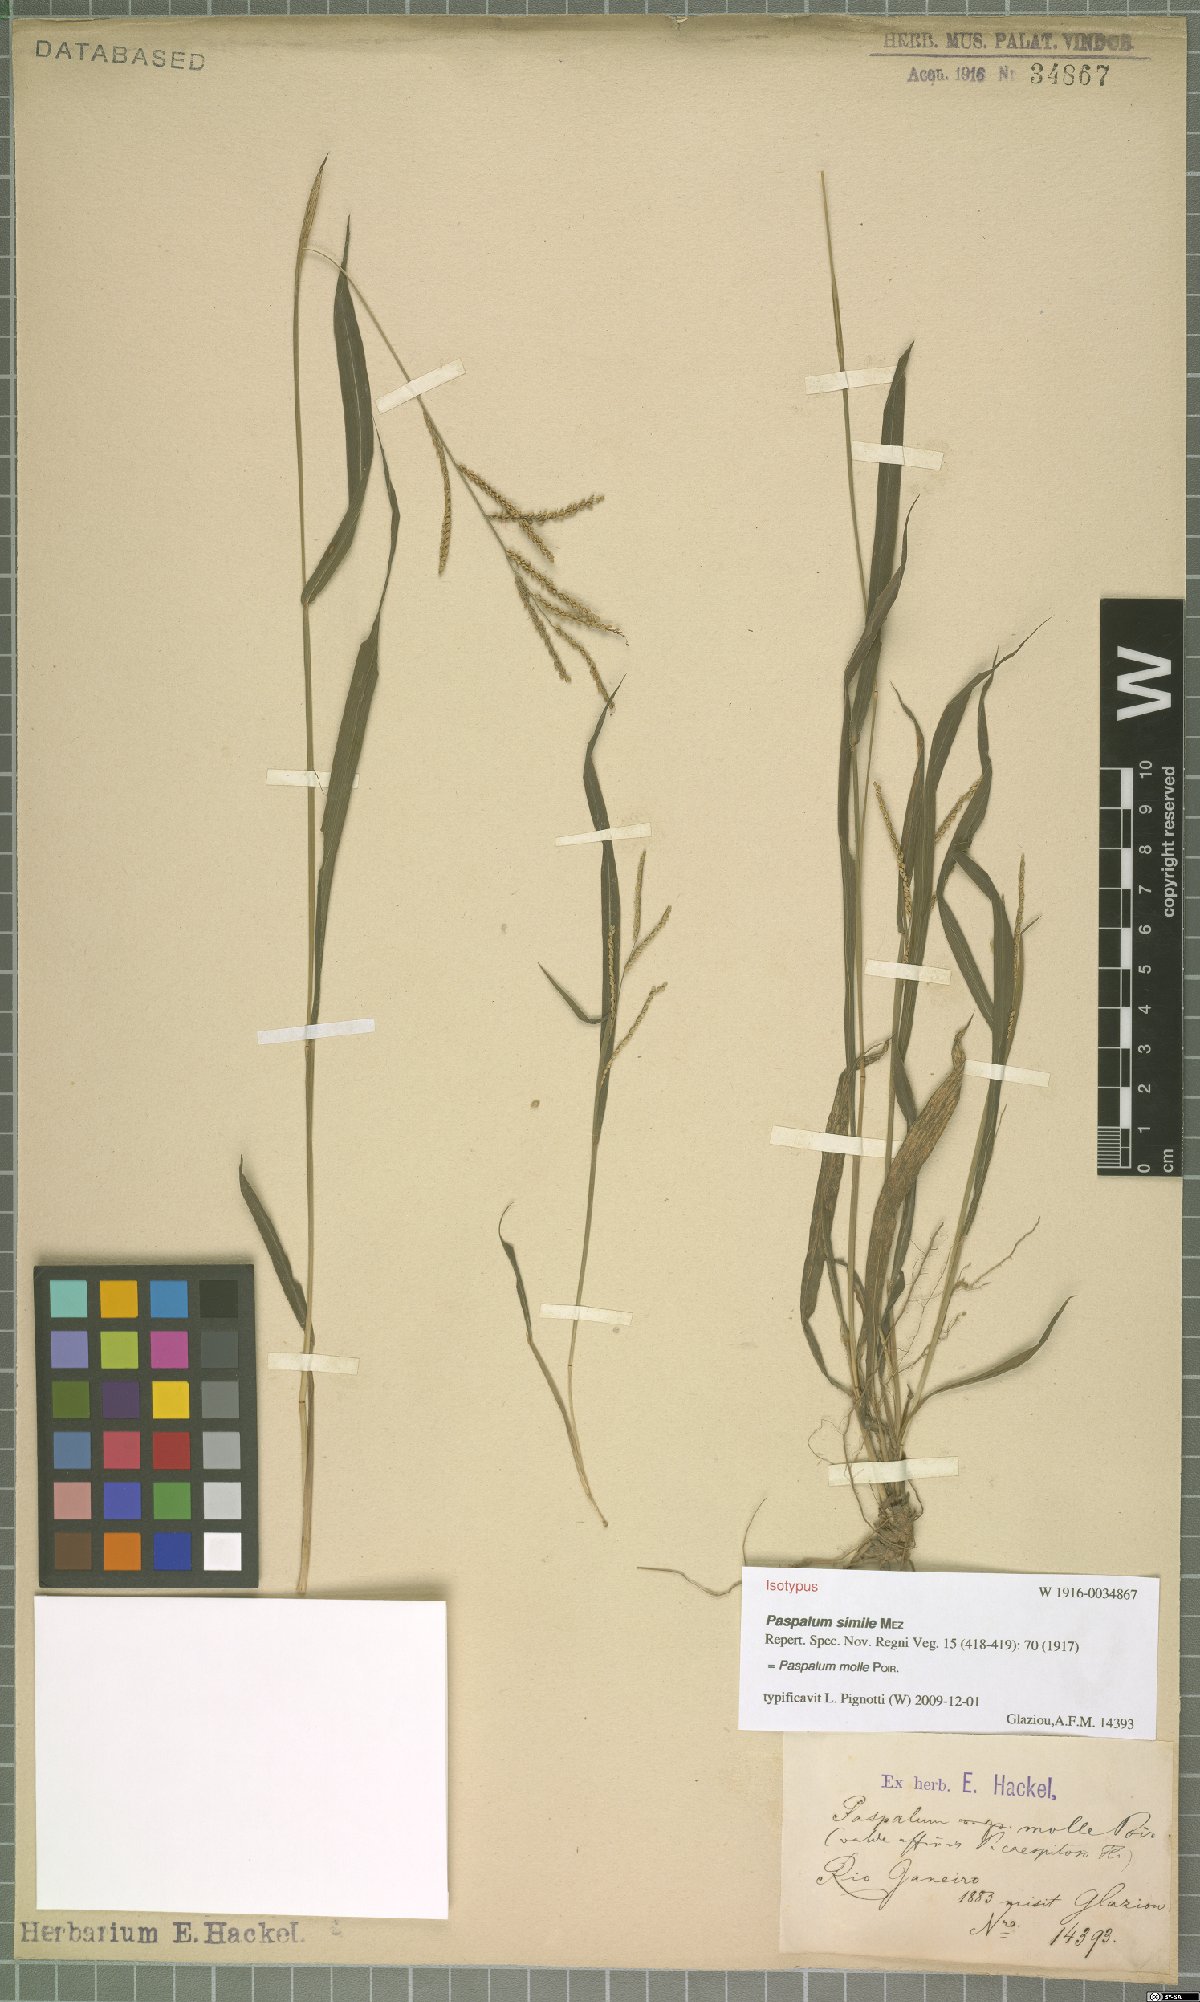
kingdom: Plantae
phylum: Tracheophyta
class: Liliopsida
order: Poales
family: Poaceae
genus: Paspalum
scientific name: Paspalum molle
